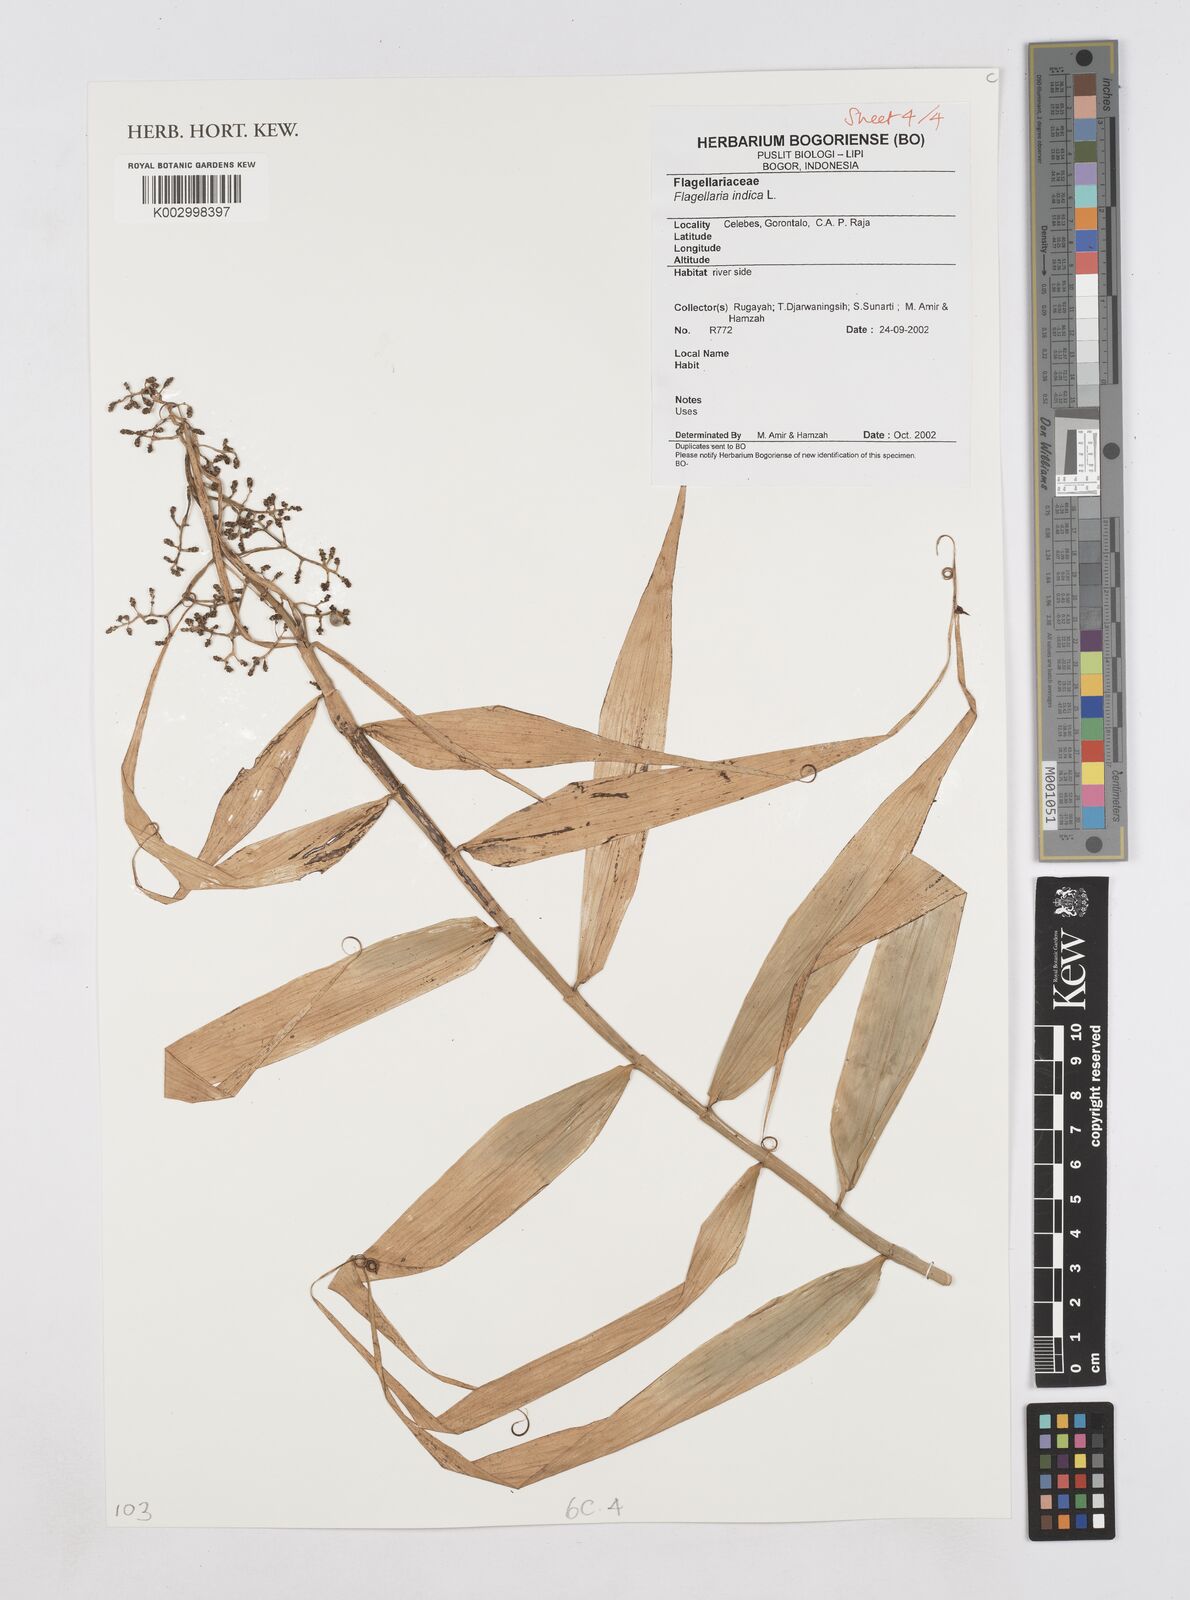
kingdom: Plantae
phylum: Tracheophyta
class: Liliopsida
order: Poales
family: Flagellariaceae
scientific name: Flagellariaceae
